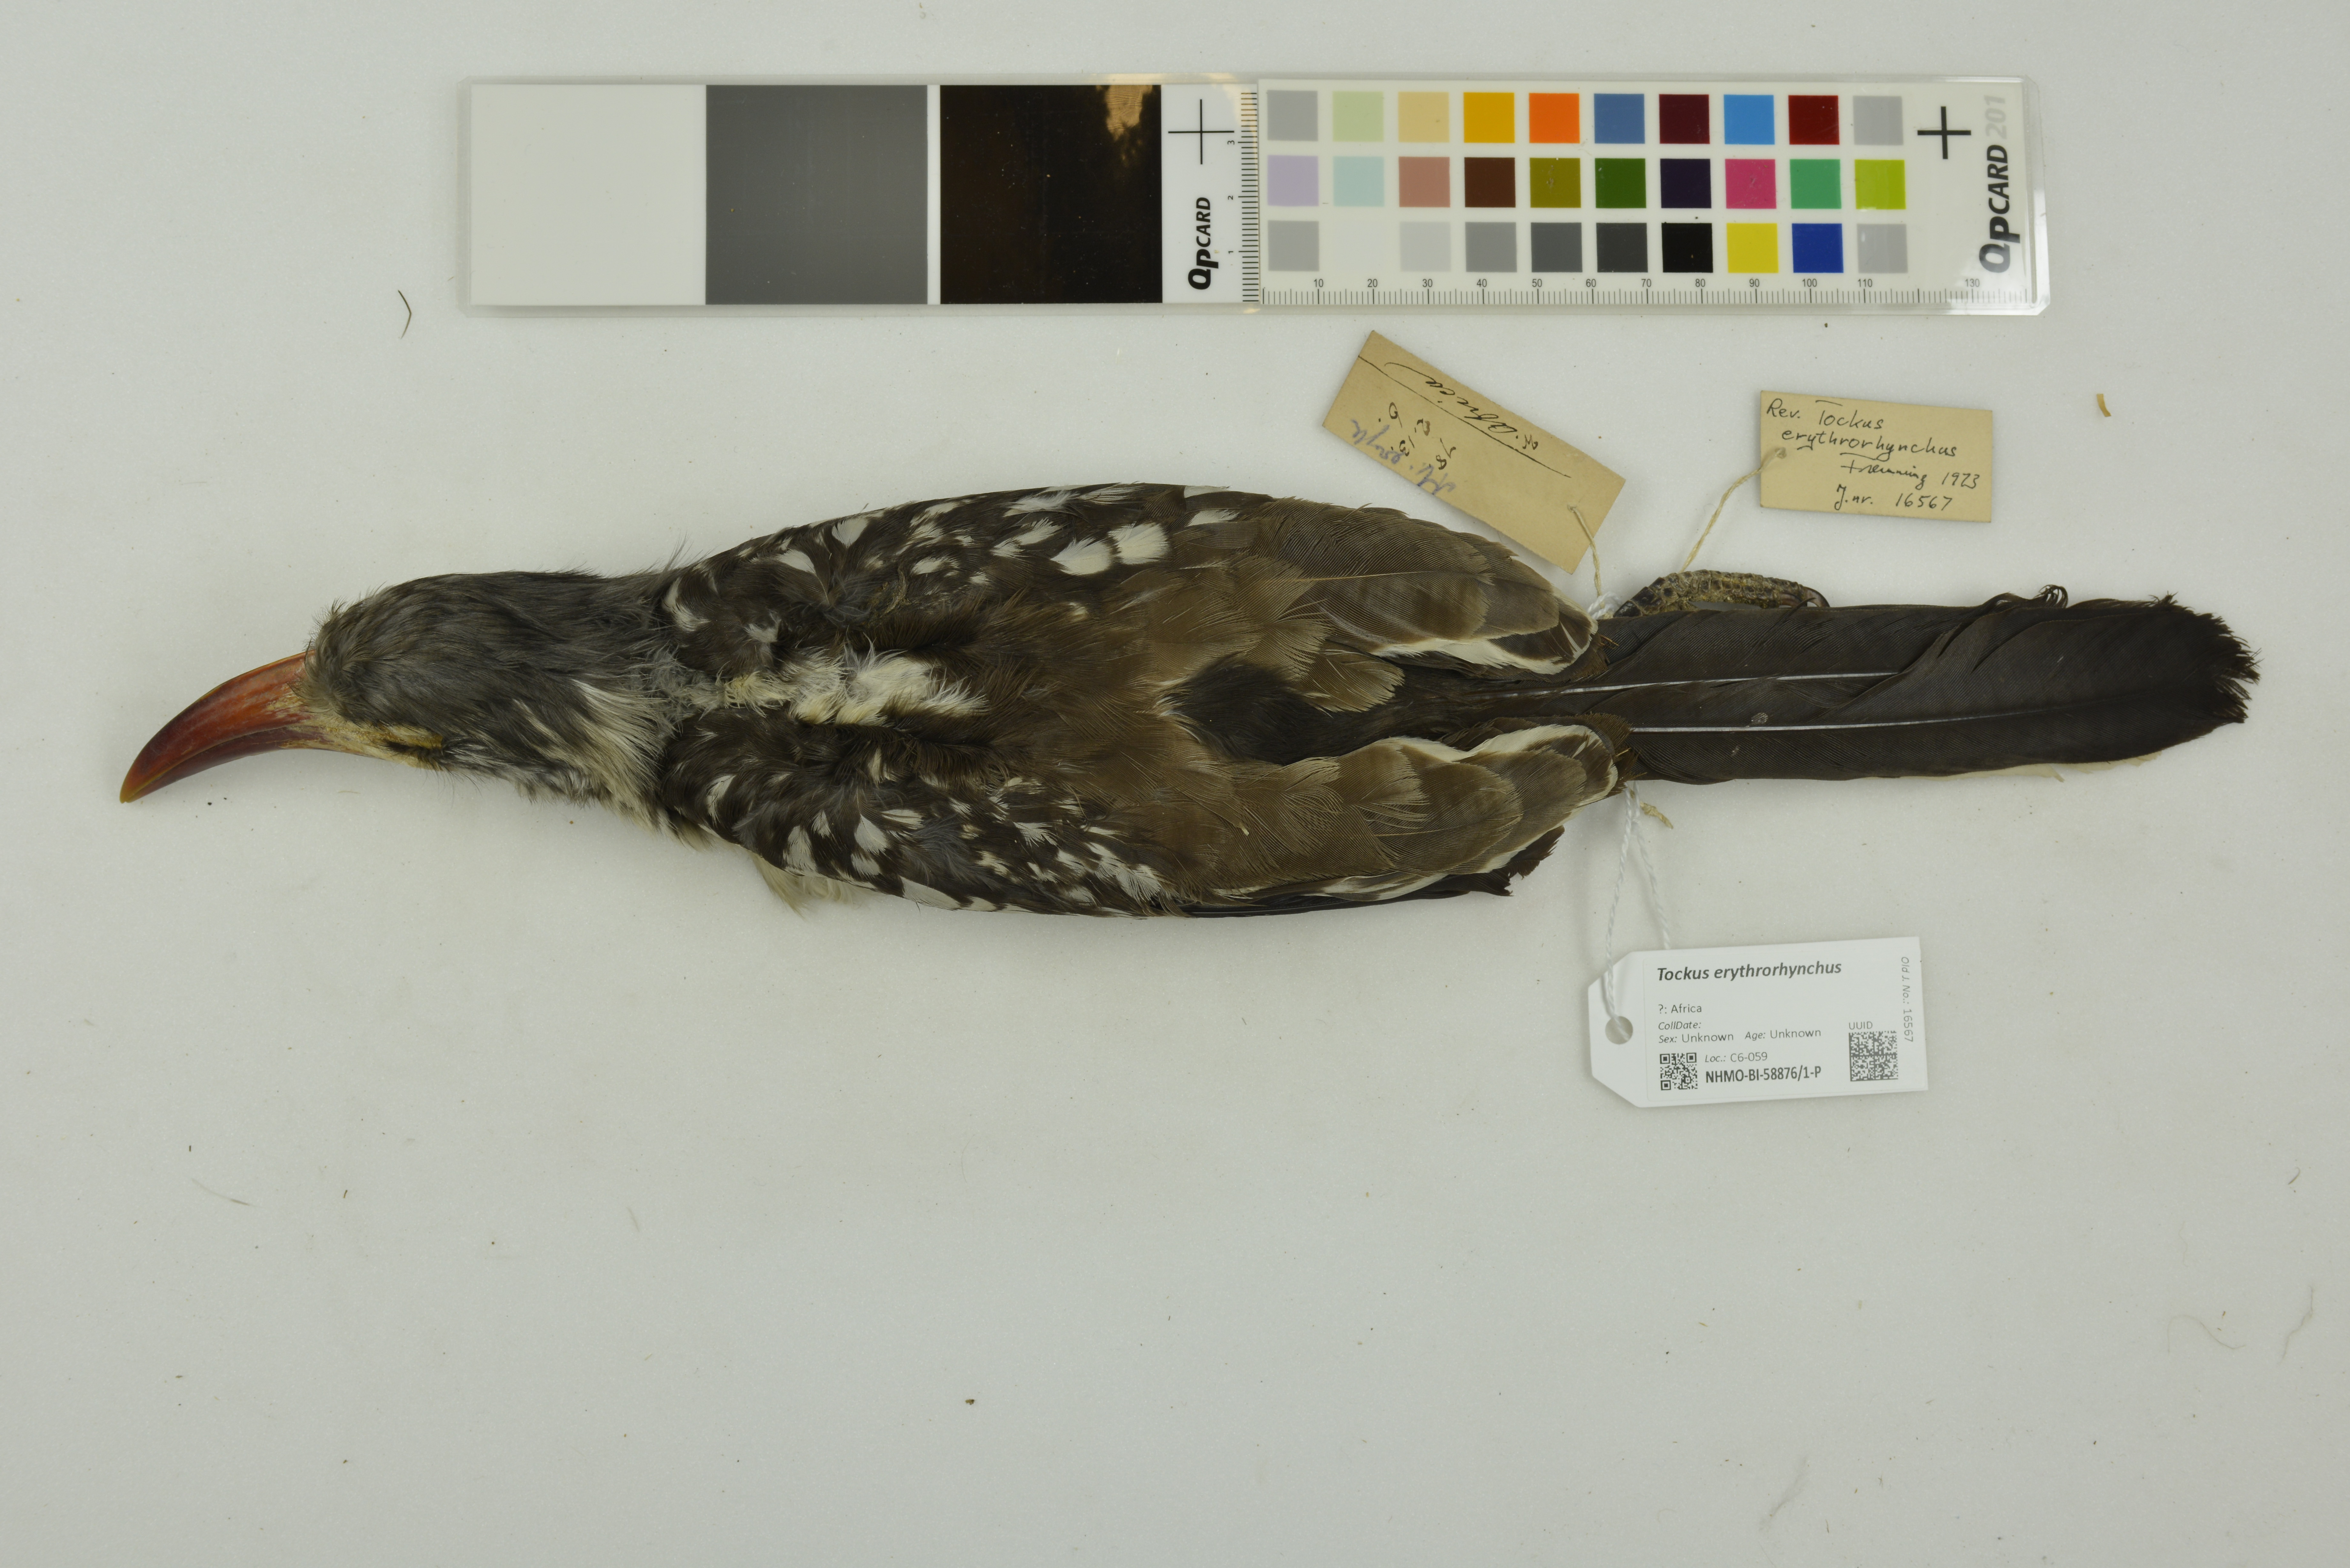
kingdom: Animalia
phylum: Chordata
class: Aves
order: Bucerotiformes
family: Bucerotidae
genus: Tockus
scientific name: Tockus erythrorhynchus
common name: Northern red-billed hornbill
